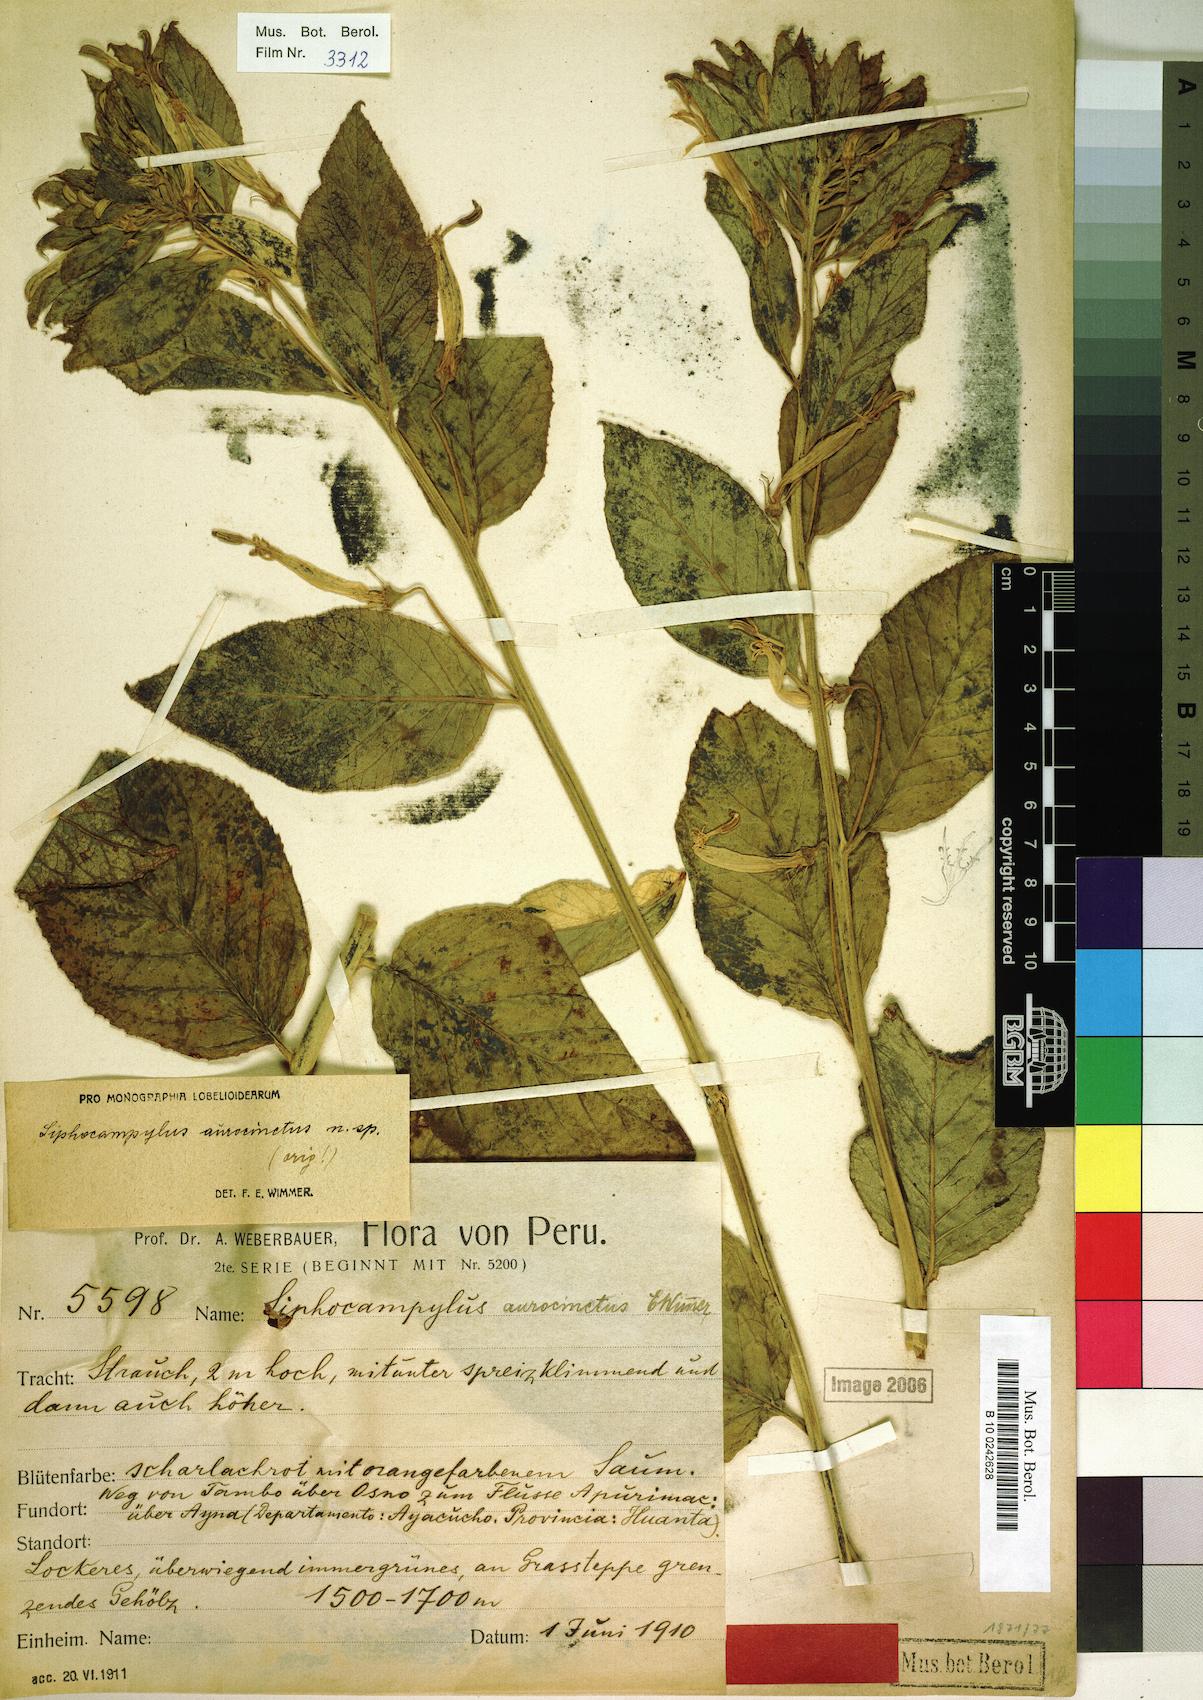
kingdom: Plantae
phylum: Tracheophyta
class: Magnoliopsida
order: Asterales
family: Campanulaceae
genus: Siphocampylus
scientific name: Siphocampylus aurocinctus
